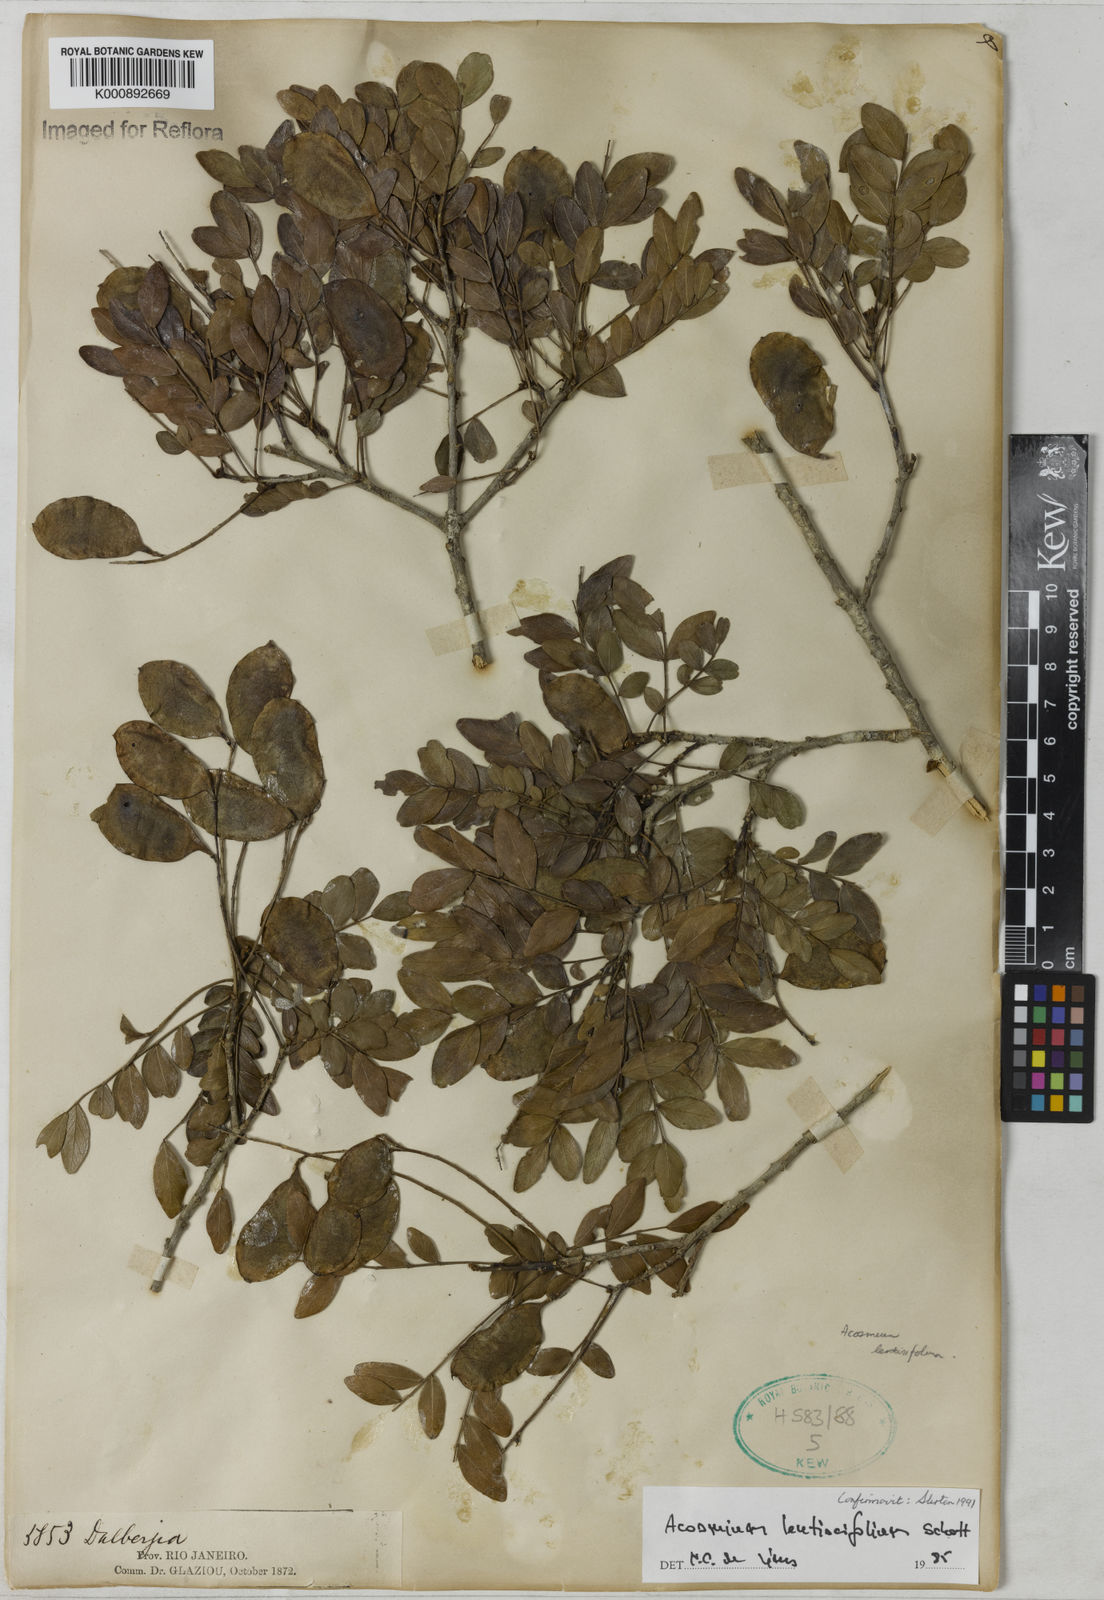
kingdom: Plantae
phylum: Tracheophyta
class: Magnoliopsida
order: Fabales
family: Fabaceae
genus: Acosmium
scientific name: Acosmium lentiscifolium
